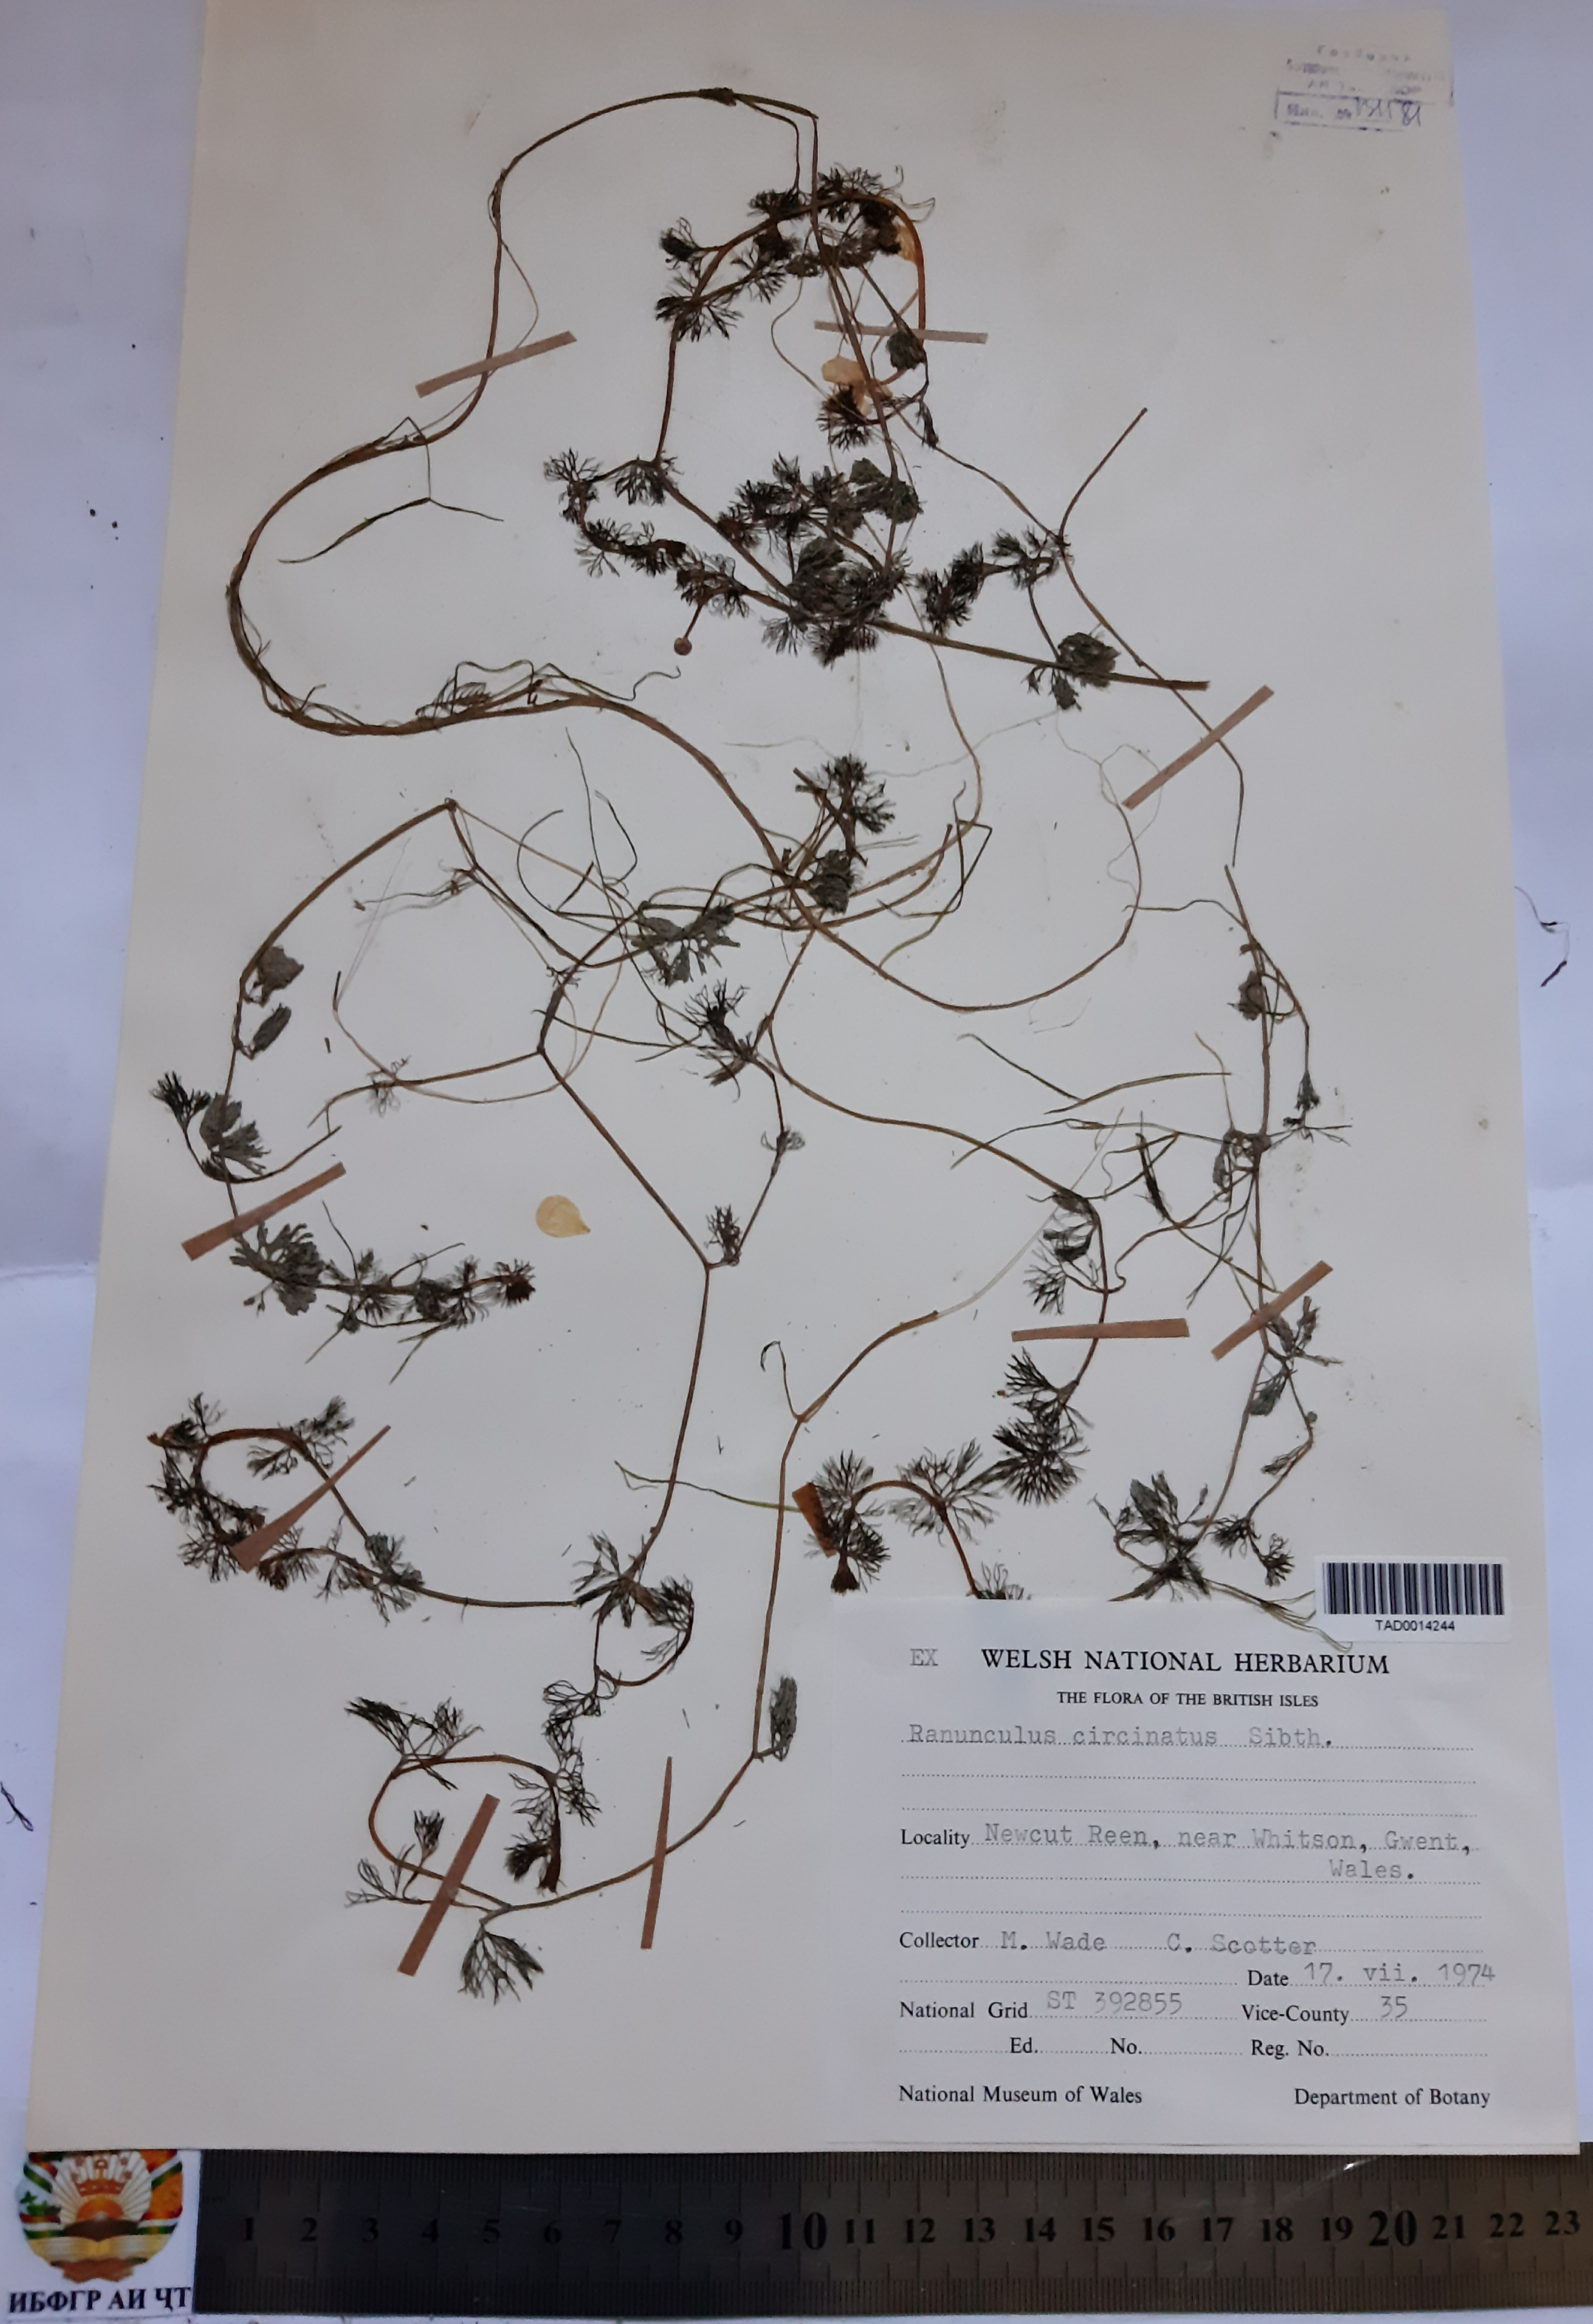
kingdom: Plantae
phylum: Tracheophyta
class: Magnoliopsida
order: Ranunculales
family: Ranunculaceae
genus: Ranunculus
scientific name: Ranunculus circinatus
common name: Fan-leaved water-crowfoot
